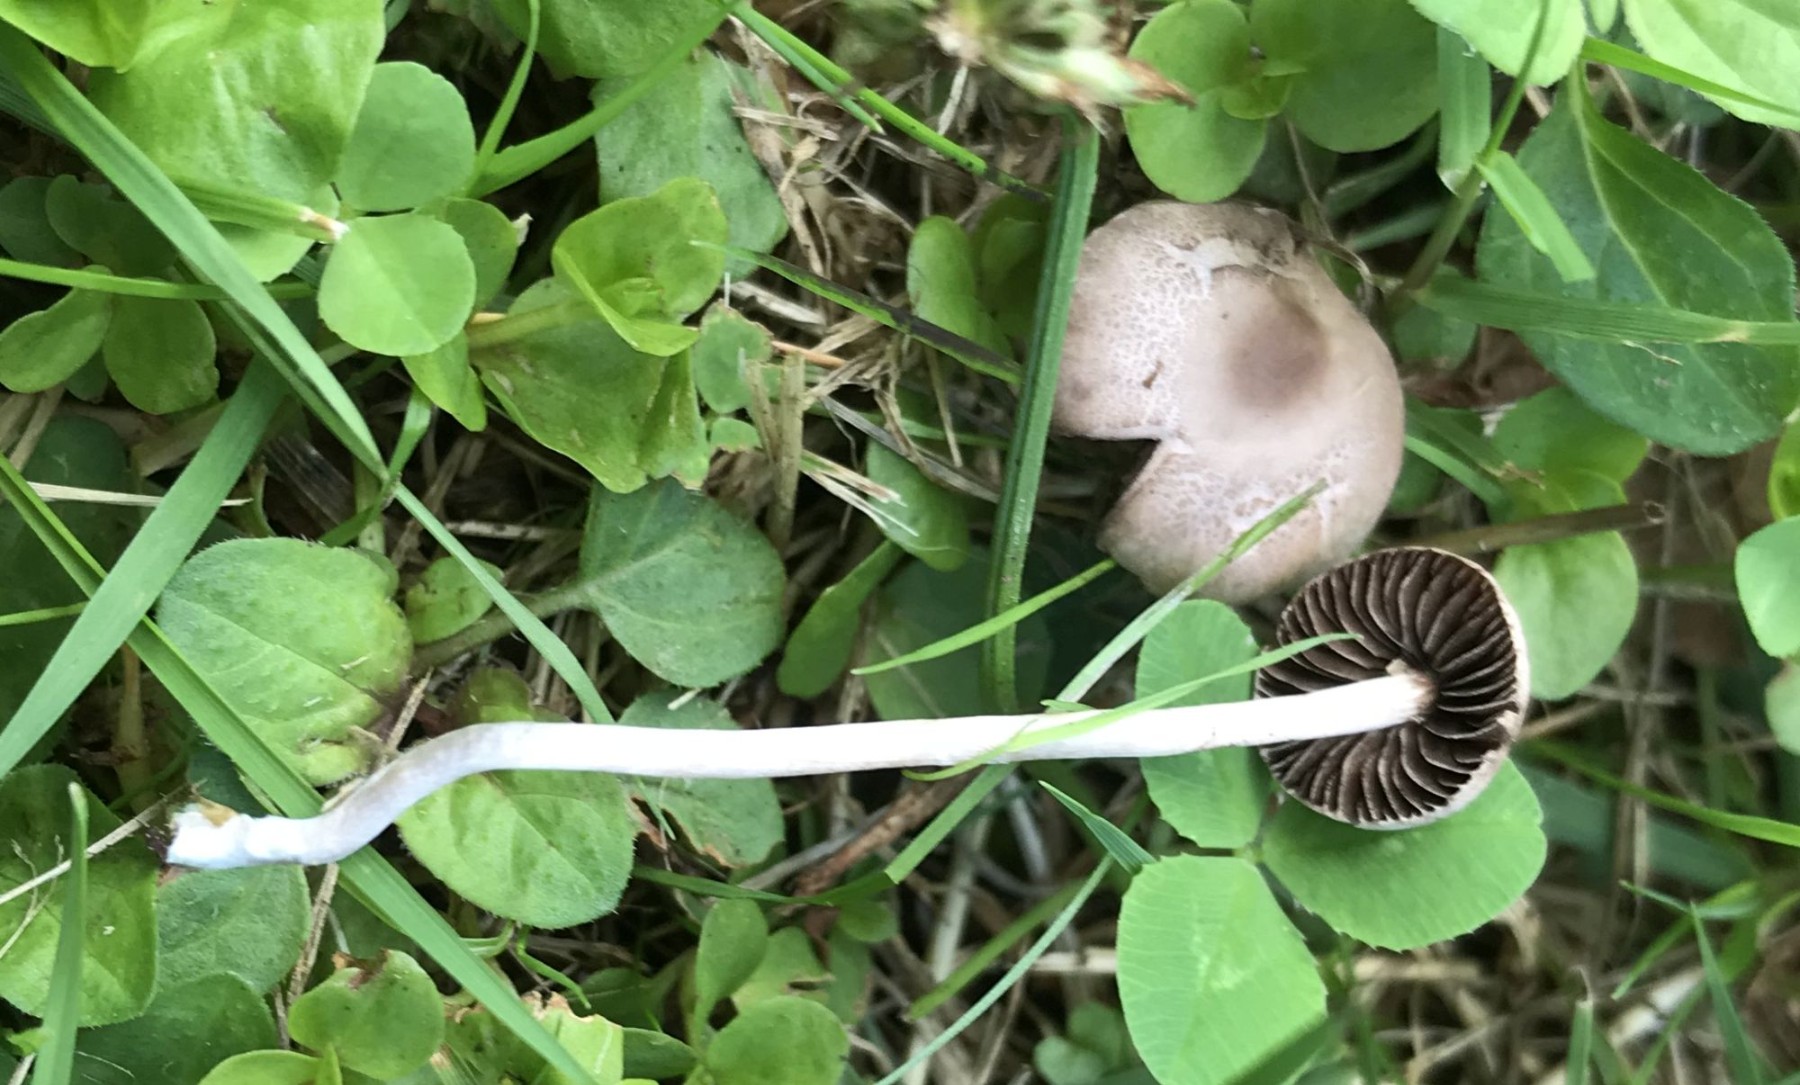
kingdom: Fungi
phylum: Basidiomycota
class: Agaricomycetes
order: Agaricales
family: Bolbitiaceae
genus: Panaeolina
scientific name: Panaeolina foenisecii
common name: høslætsvamp
